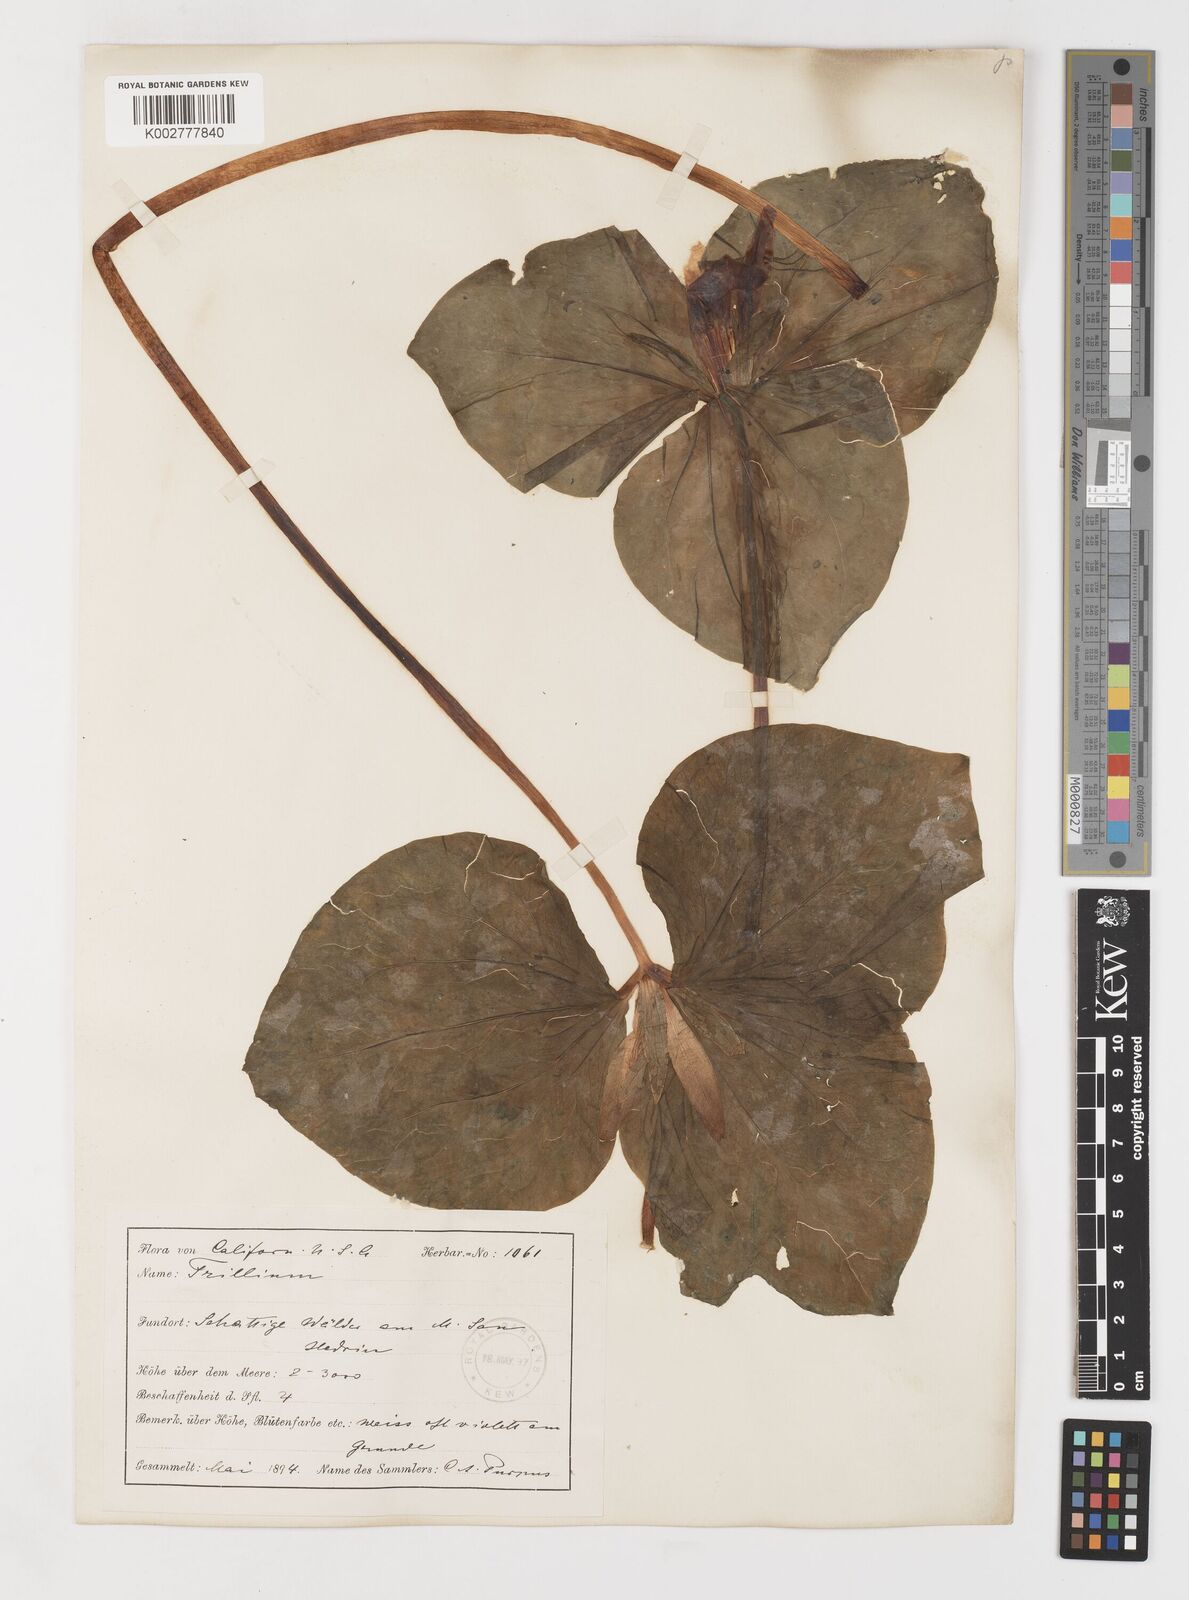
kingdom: Plantae
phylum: Tracheophyta
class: Liliopsida
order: Liliales
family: Melanthiaceae
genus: Trillium
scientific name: Trillium chloropetalum
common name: Giant trillium
